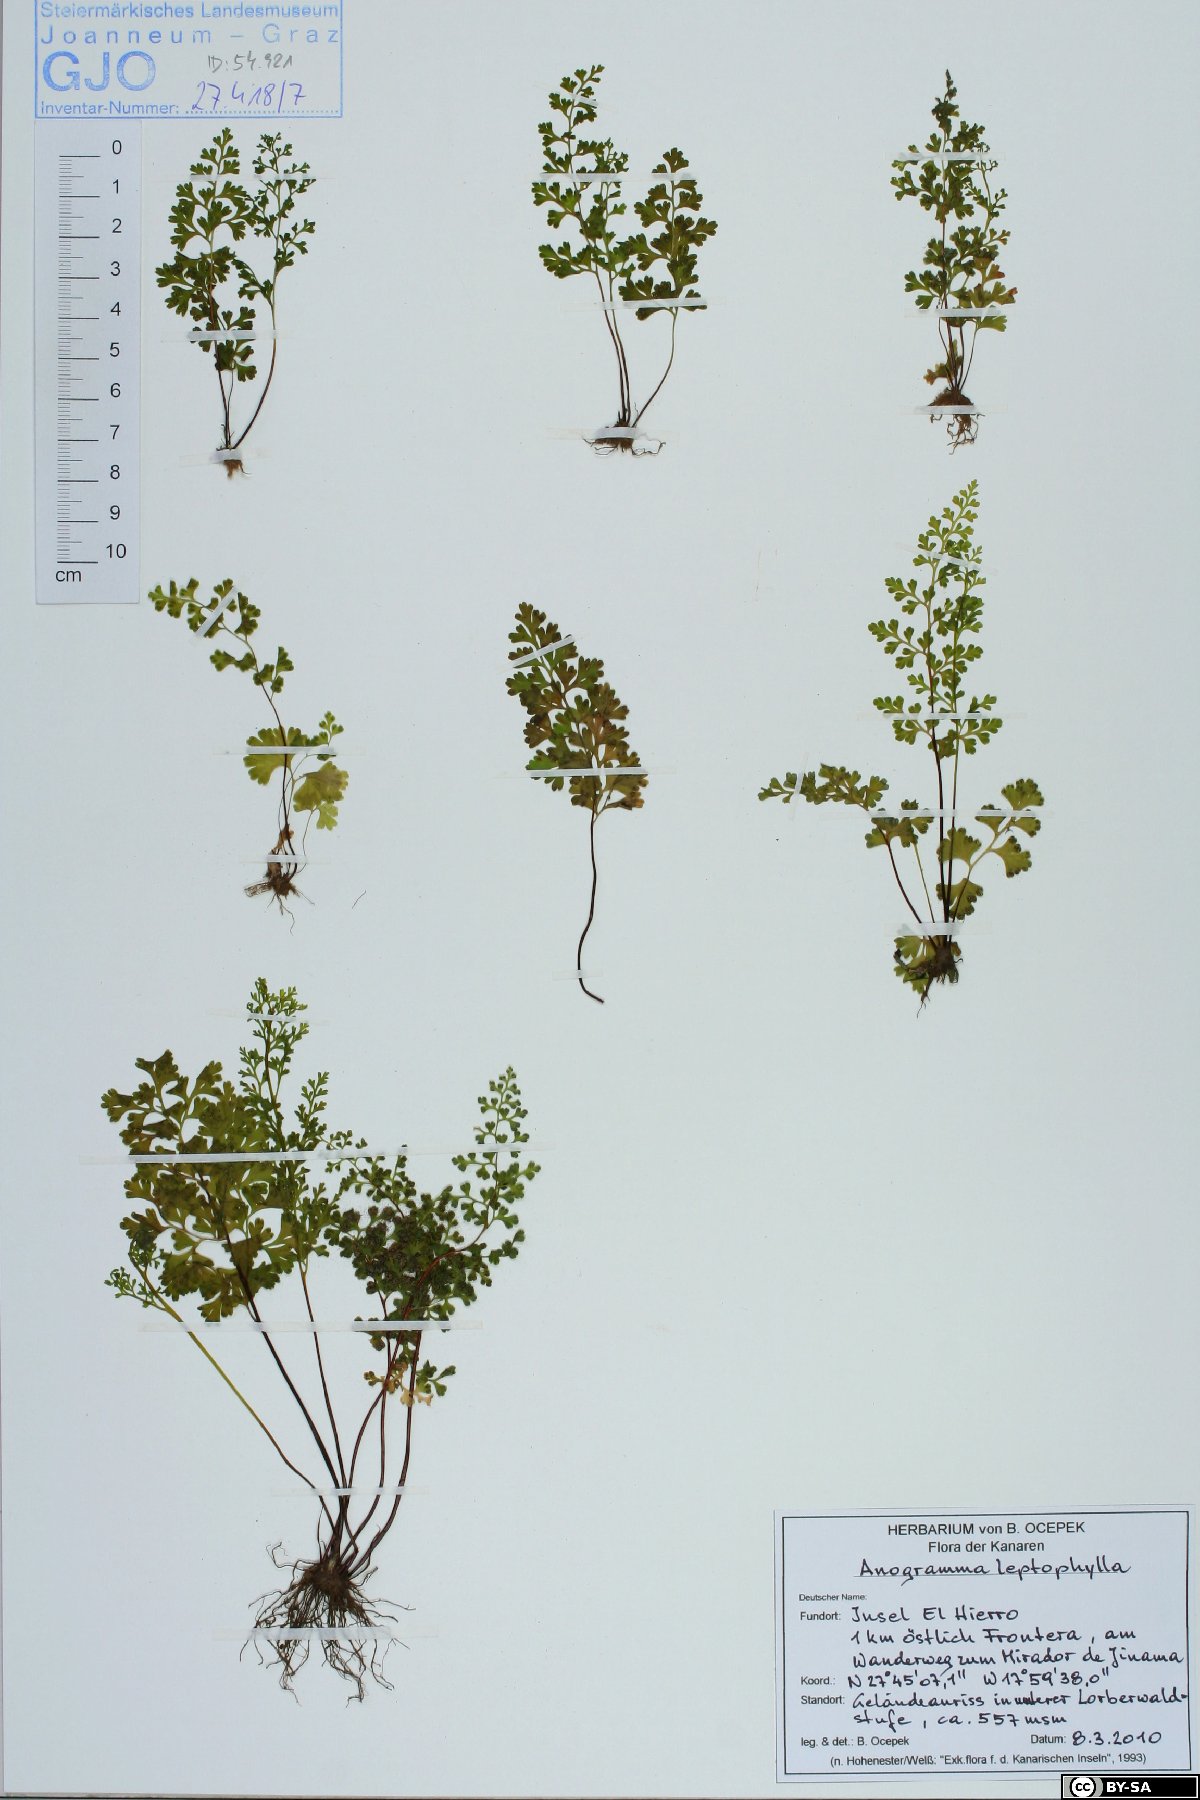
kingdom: Plantae
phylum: Tracheophyta
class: Polypodiopsida
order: Polypodiales
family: Pteridaceae
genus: Anogramma
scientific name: Anogramma leptophylla
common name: Jersey fern
